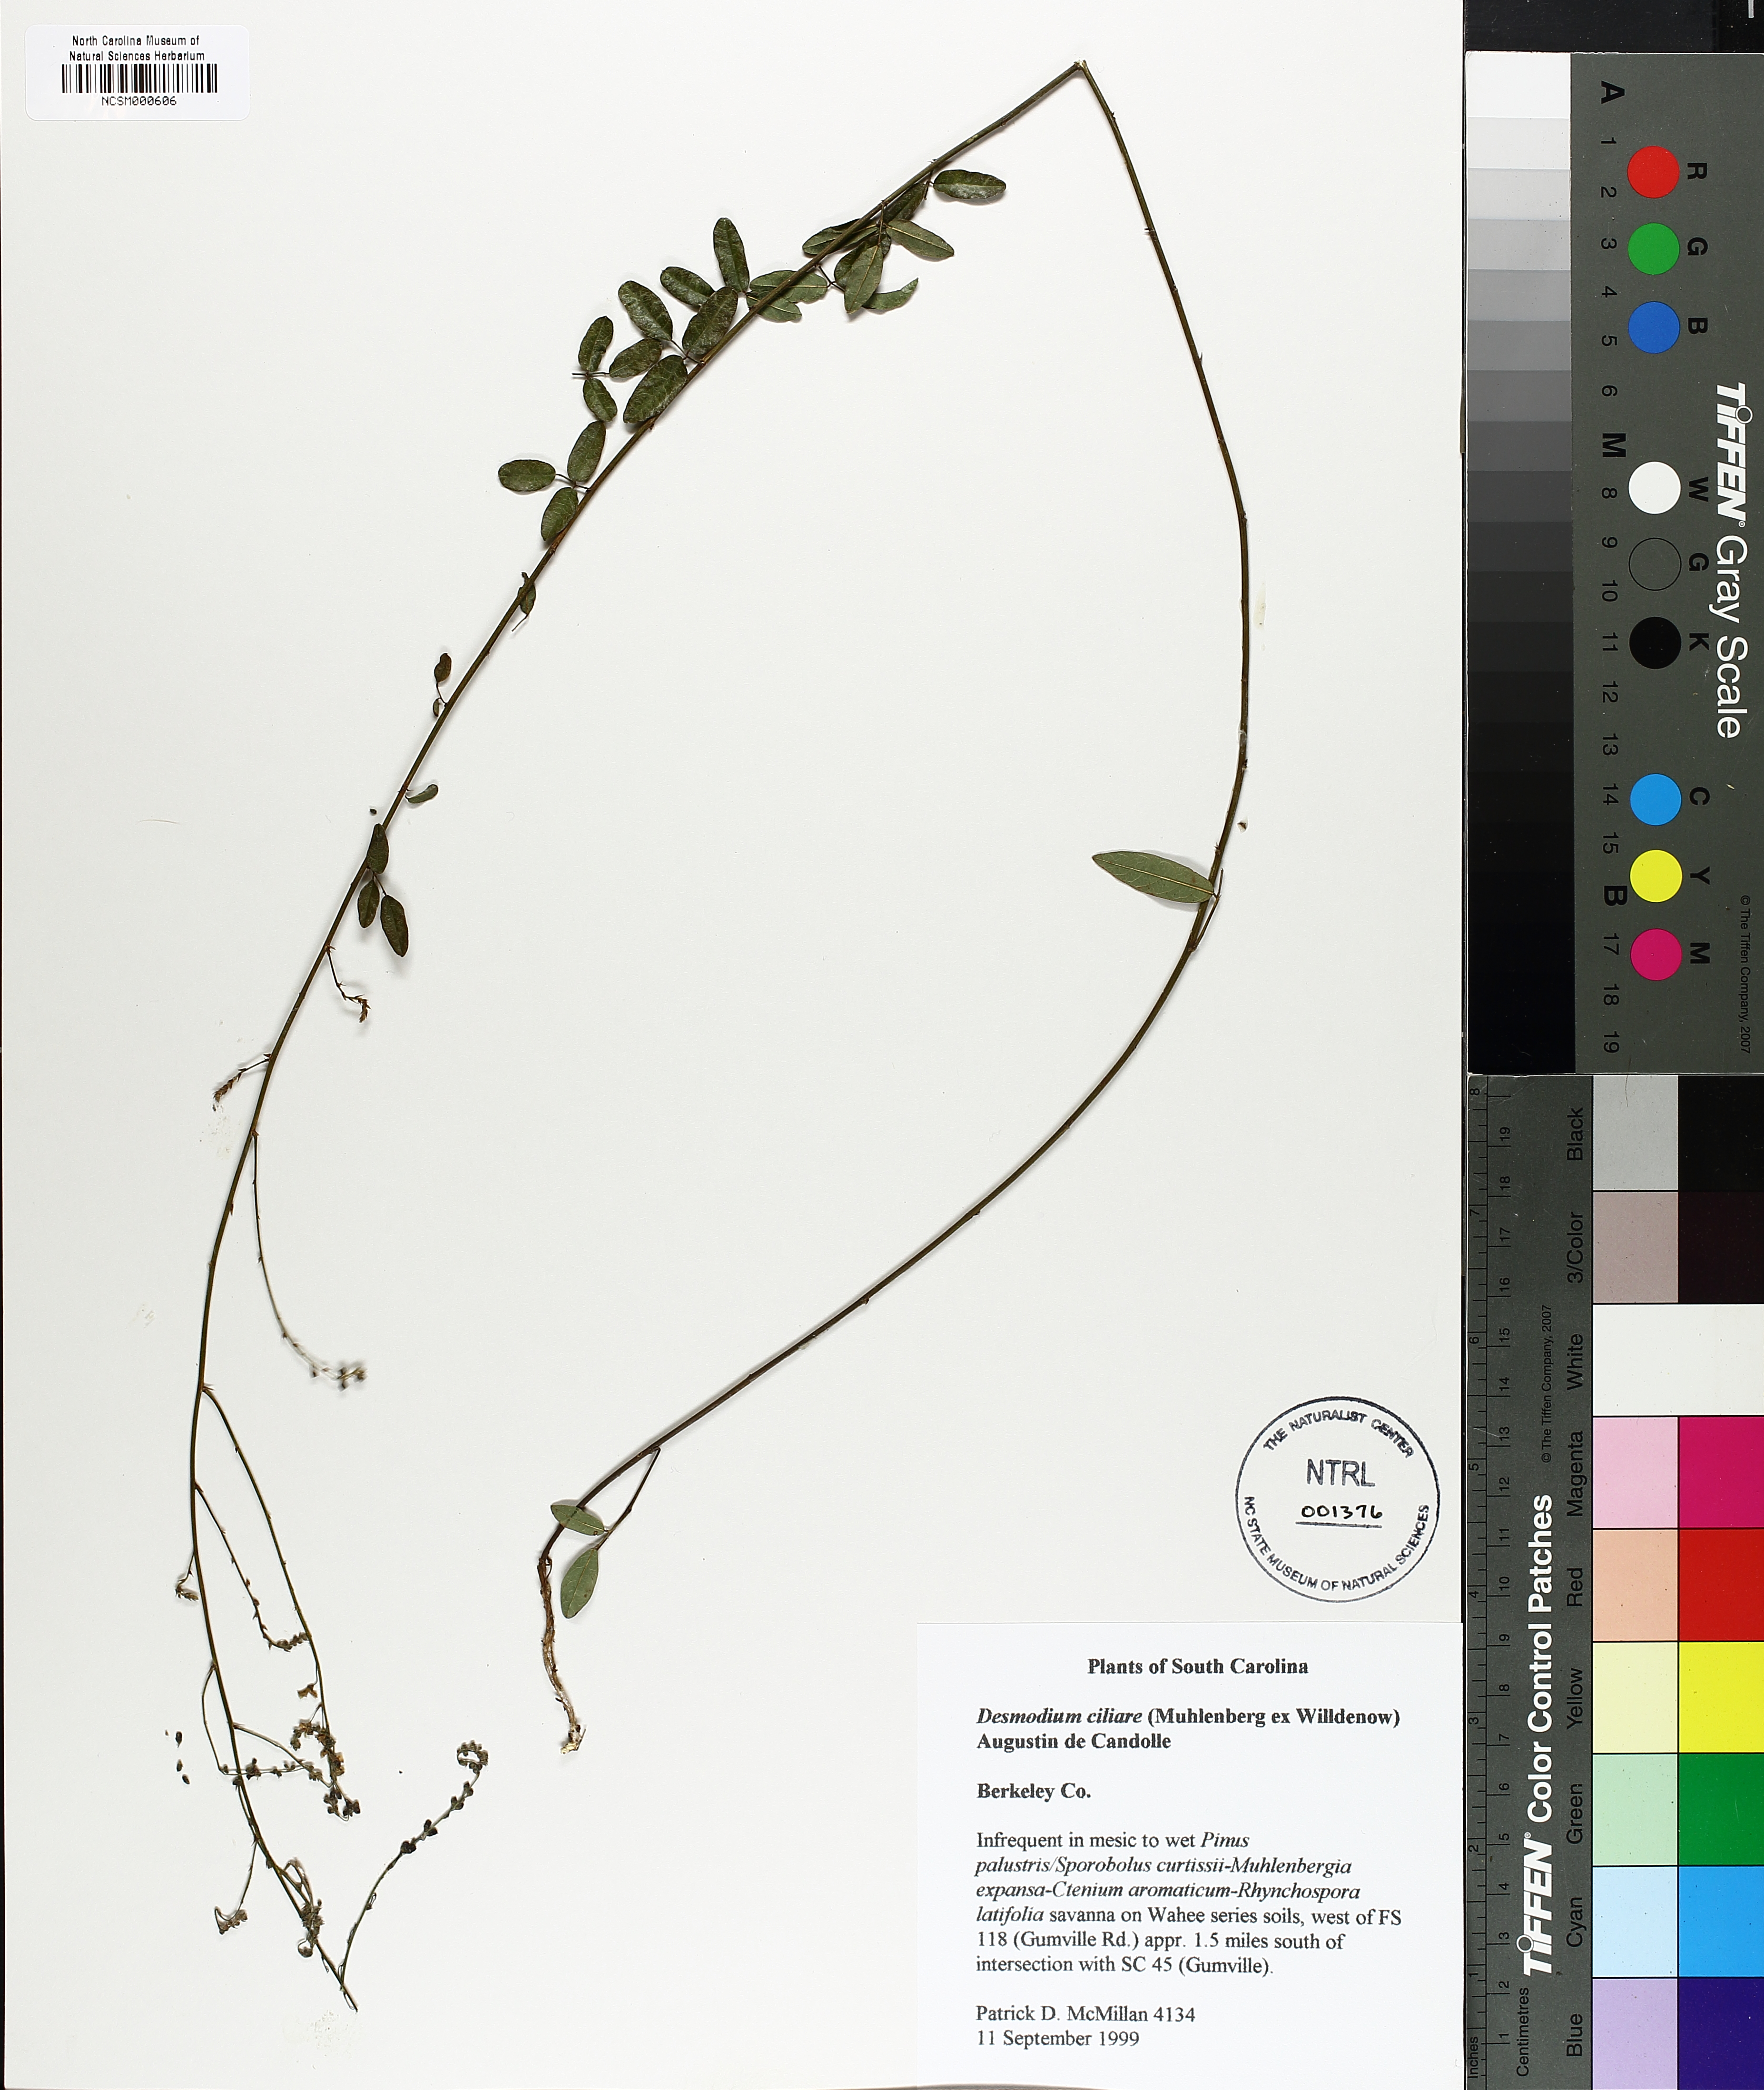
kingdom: Plantae
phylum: Tracheophyta
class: Magnoliopsida
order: Fabales
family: Fabaceae
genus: Desmodium
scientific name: Desmodium ciliare
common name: Hairy small-leaf ticktrefoil
